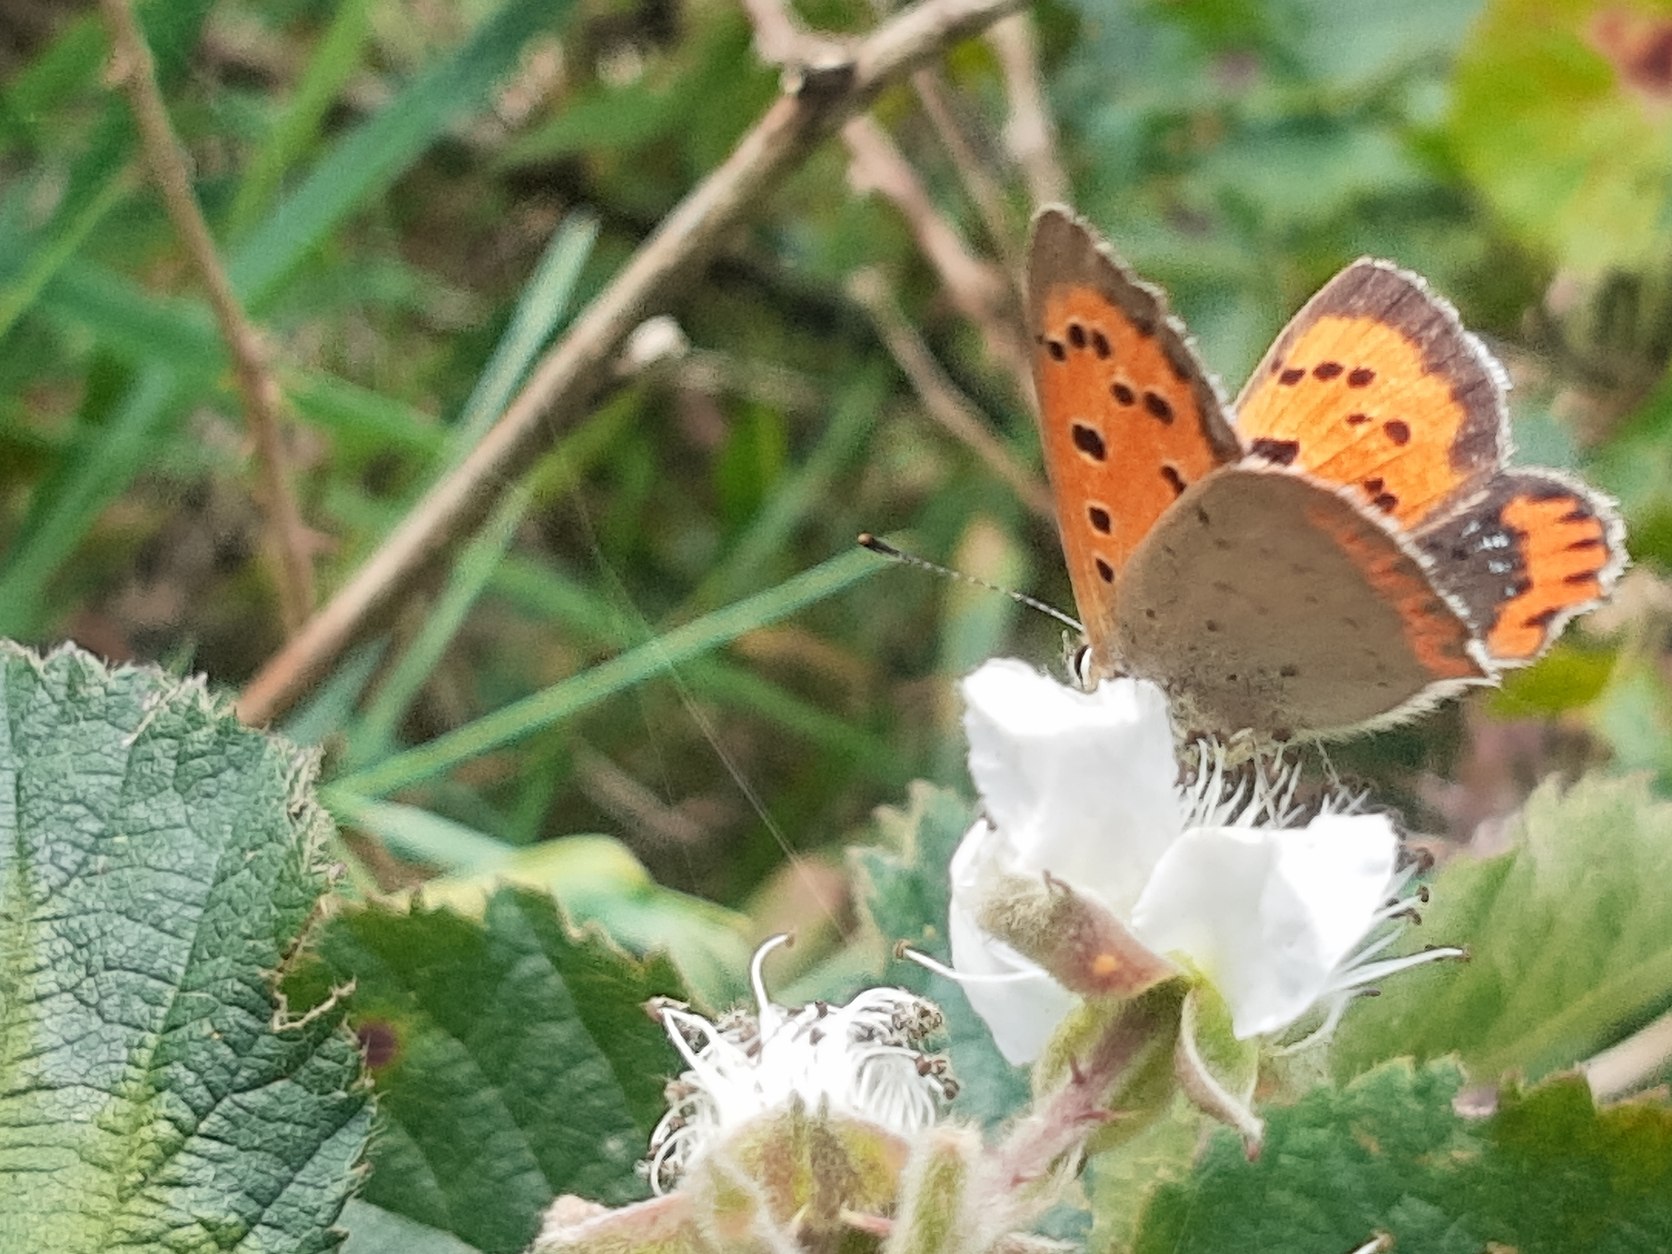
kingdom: Animalia
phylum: Arthropoda
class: Insecta
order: Lepidoptera
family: Lycaenidae
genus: Lycaena
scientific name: Lycaena phlaeas
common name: Lille ildfugl
